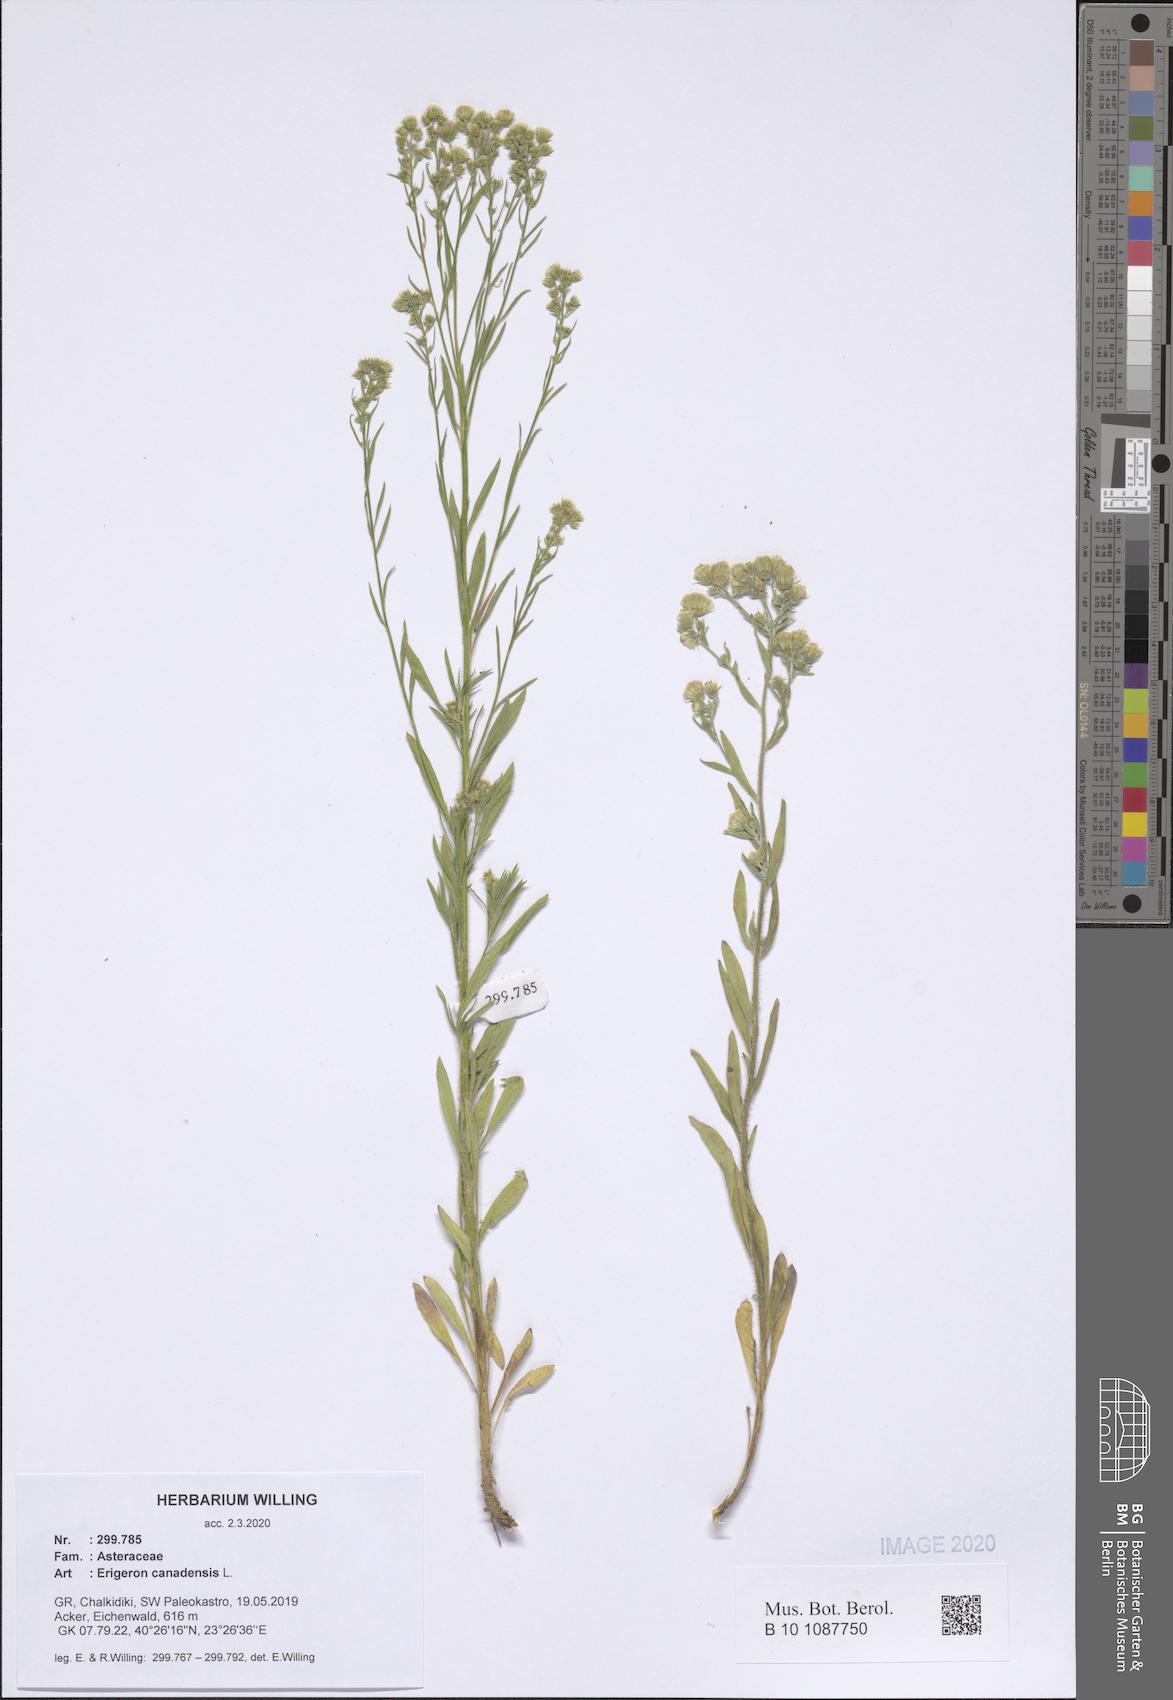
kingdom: Plantae
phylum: Tracheophyta
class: Magnoliopsida
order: Asterales
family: Asteraceae
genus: Erigeron
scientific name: Erigeron canadensis
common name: Canadian fleabane
